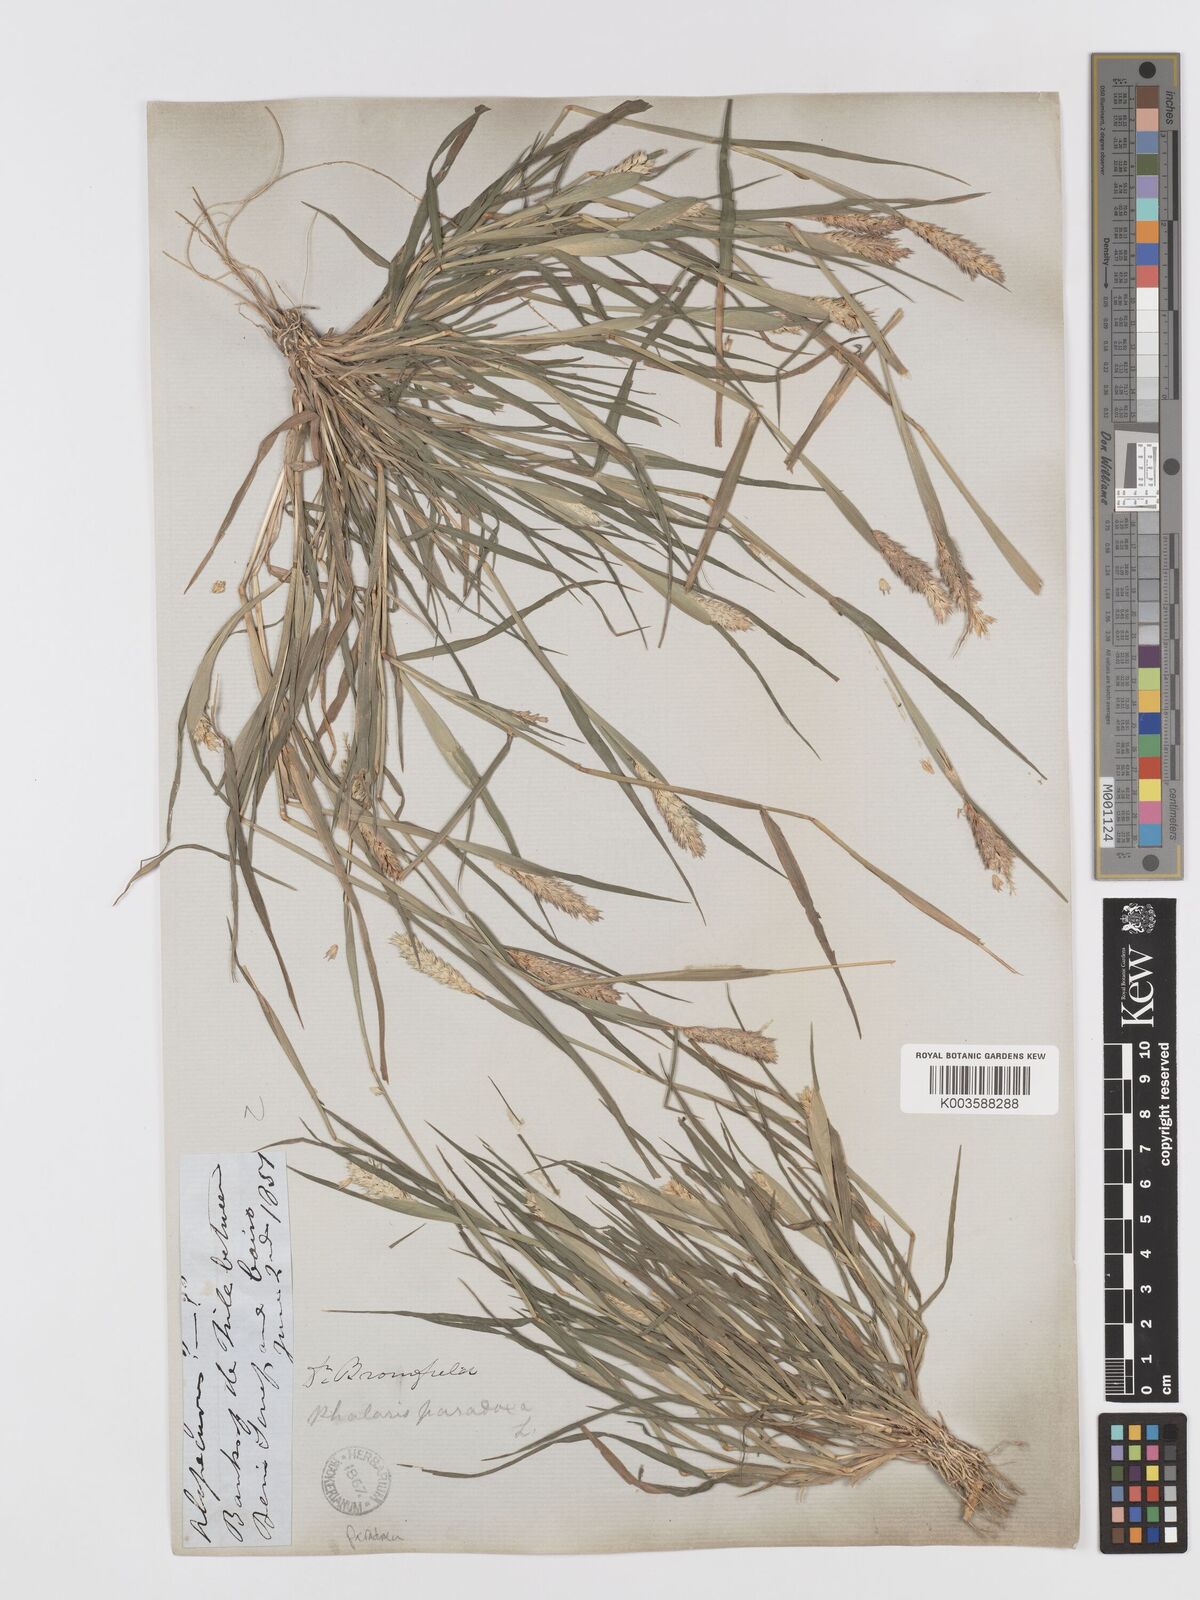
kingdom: Plantae
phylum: Tracheophyta
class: Liliopsida
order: Poales
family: Poaceae
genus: Phalaris
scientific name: Phalaris paradoxa
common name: Awned canary-grass
